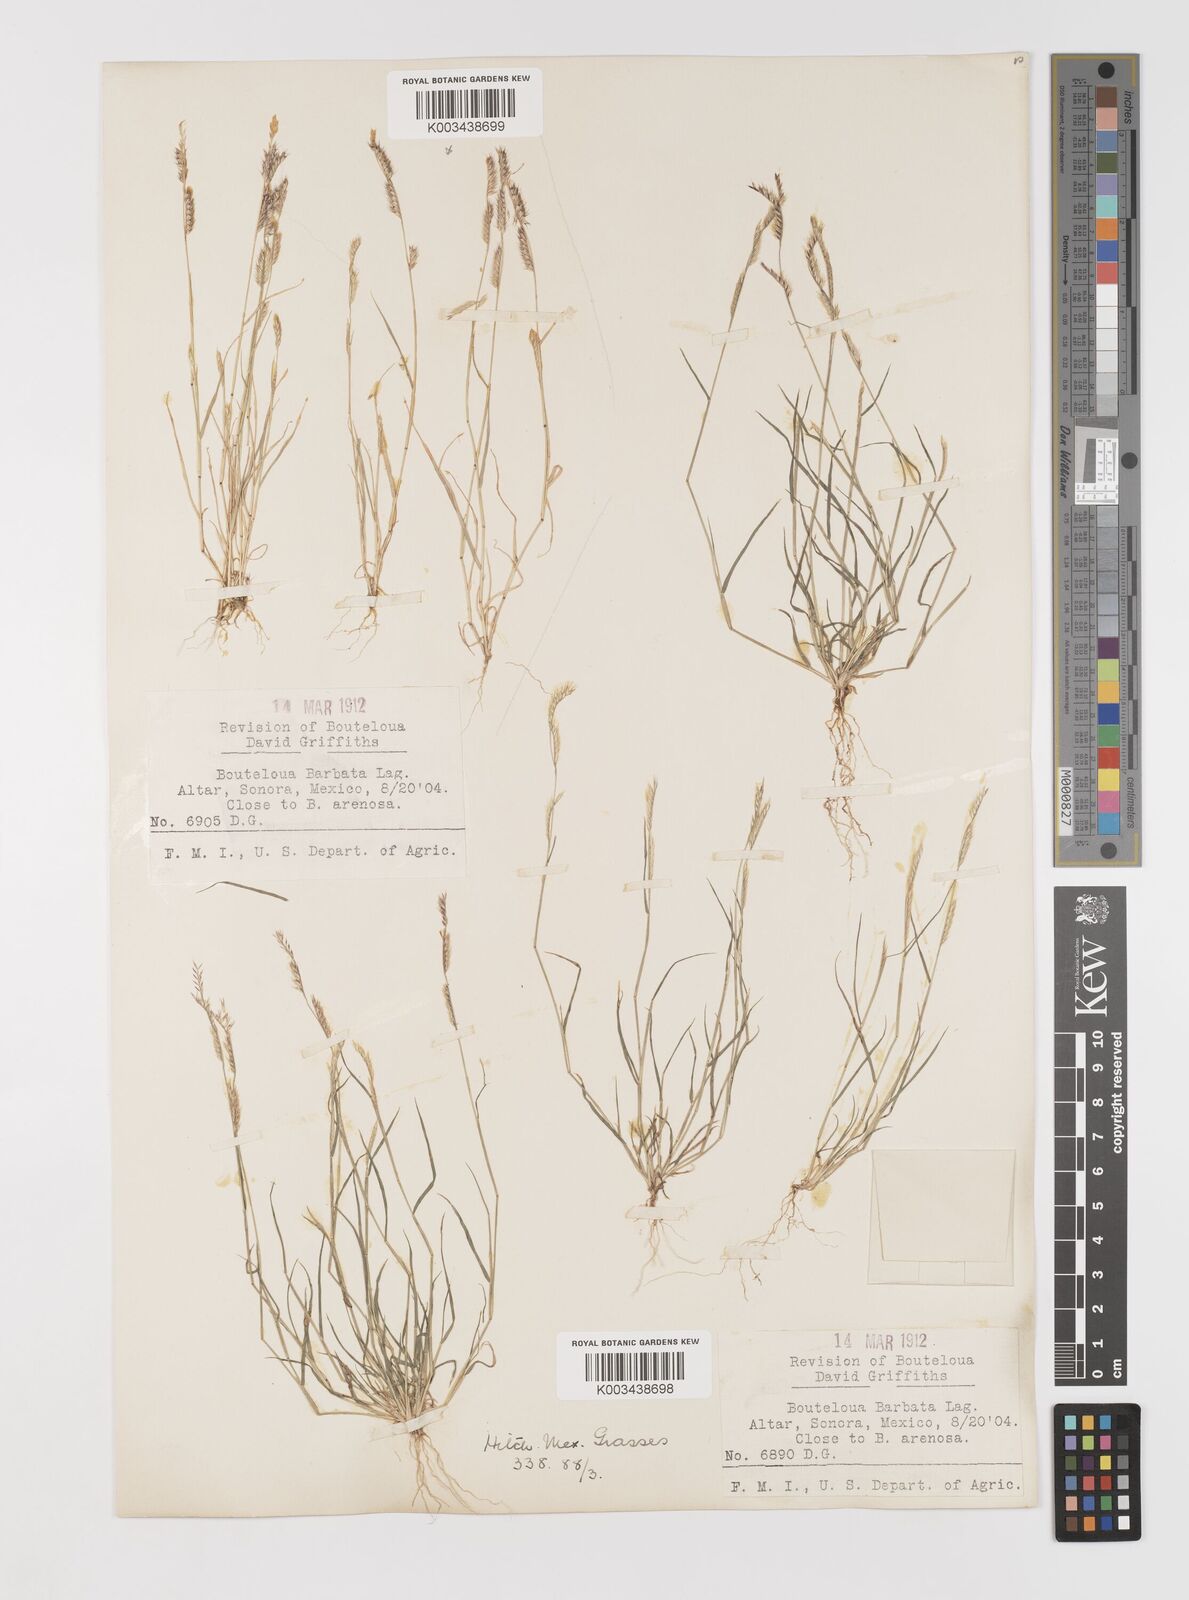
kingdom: Plantae
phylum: Tracheophyta
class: Liliopsida
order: Poales
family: Poaceae
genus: Bouteloua
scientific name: Bouteloua
